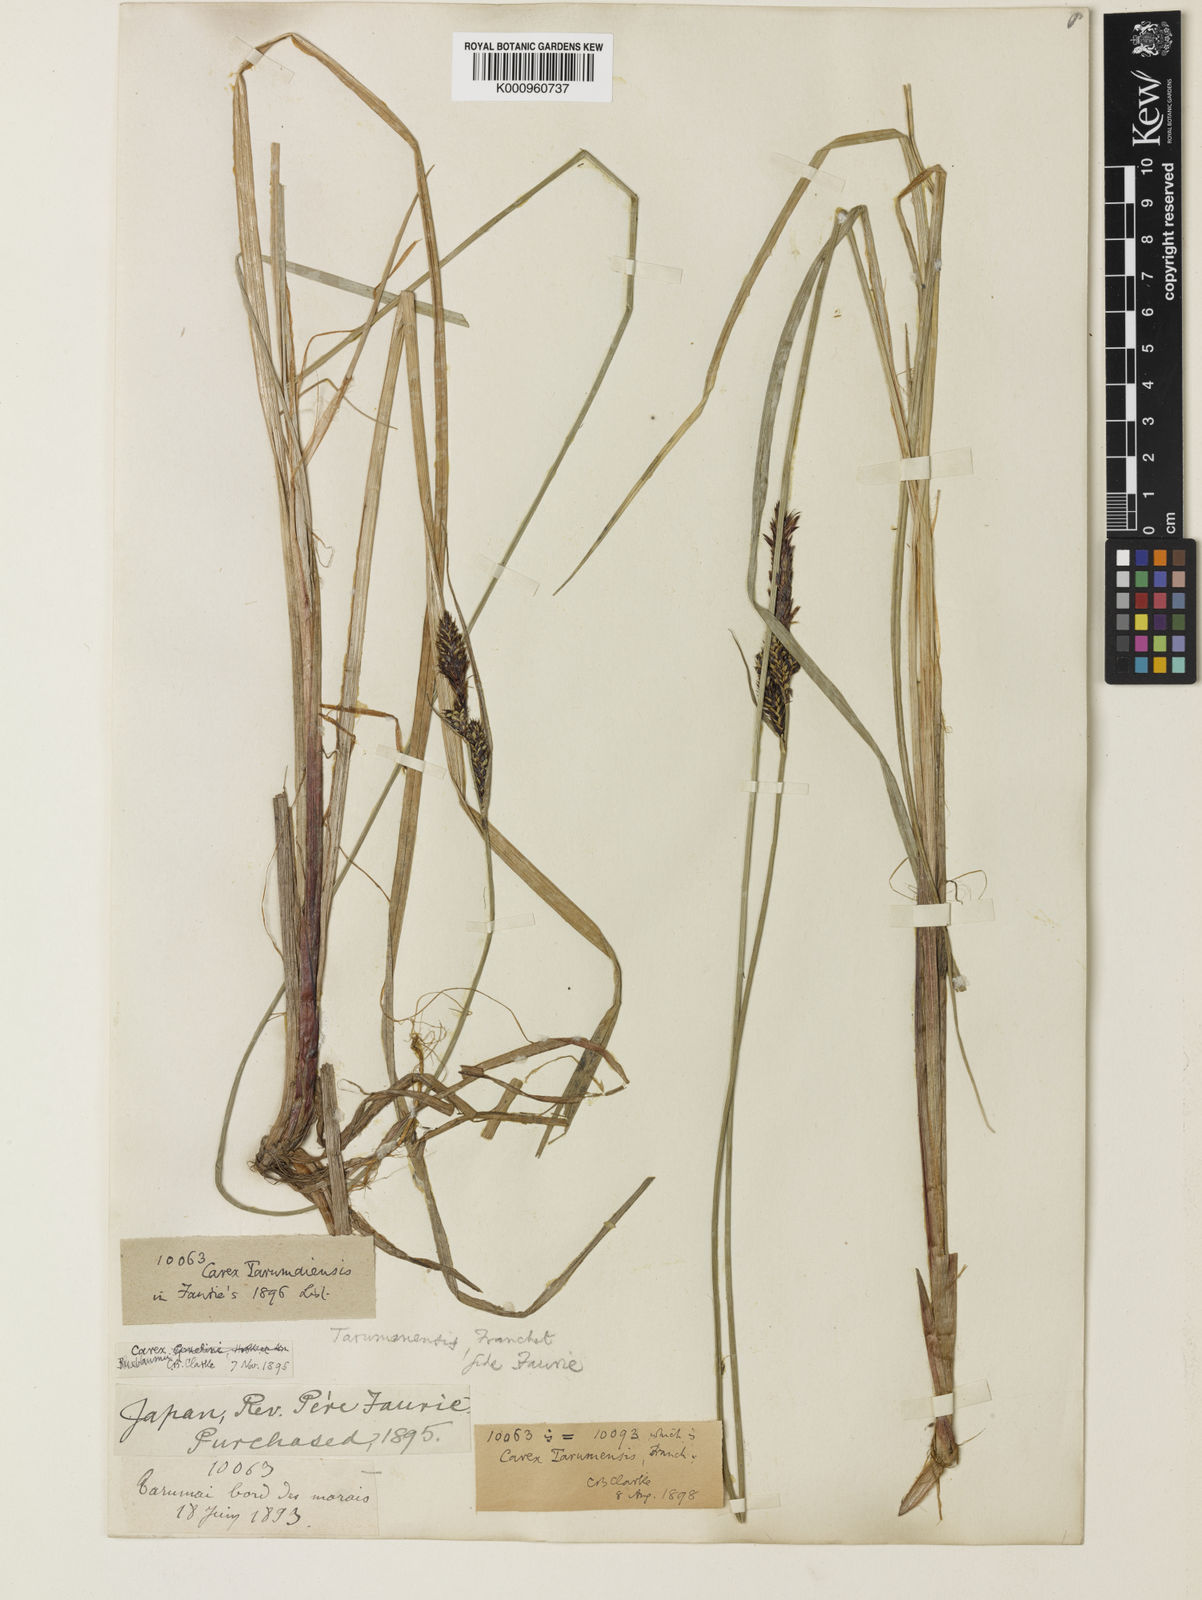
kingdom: Plantae
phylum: Tracheophyta
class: Liliopsida
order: Poales
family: Cyperaceae
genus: Carex
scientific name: Carex buxbaumii
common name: Club sedge
